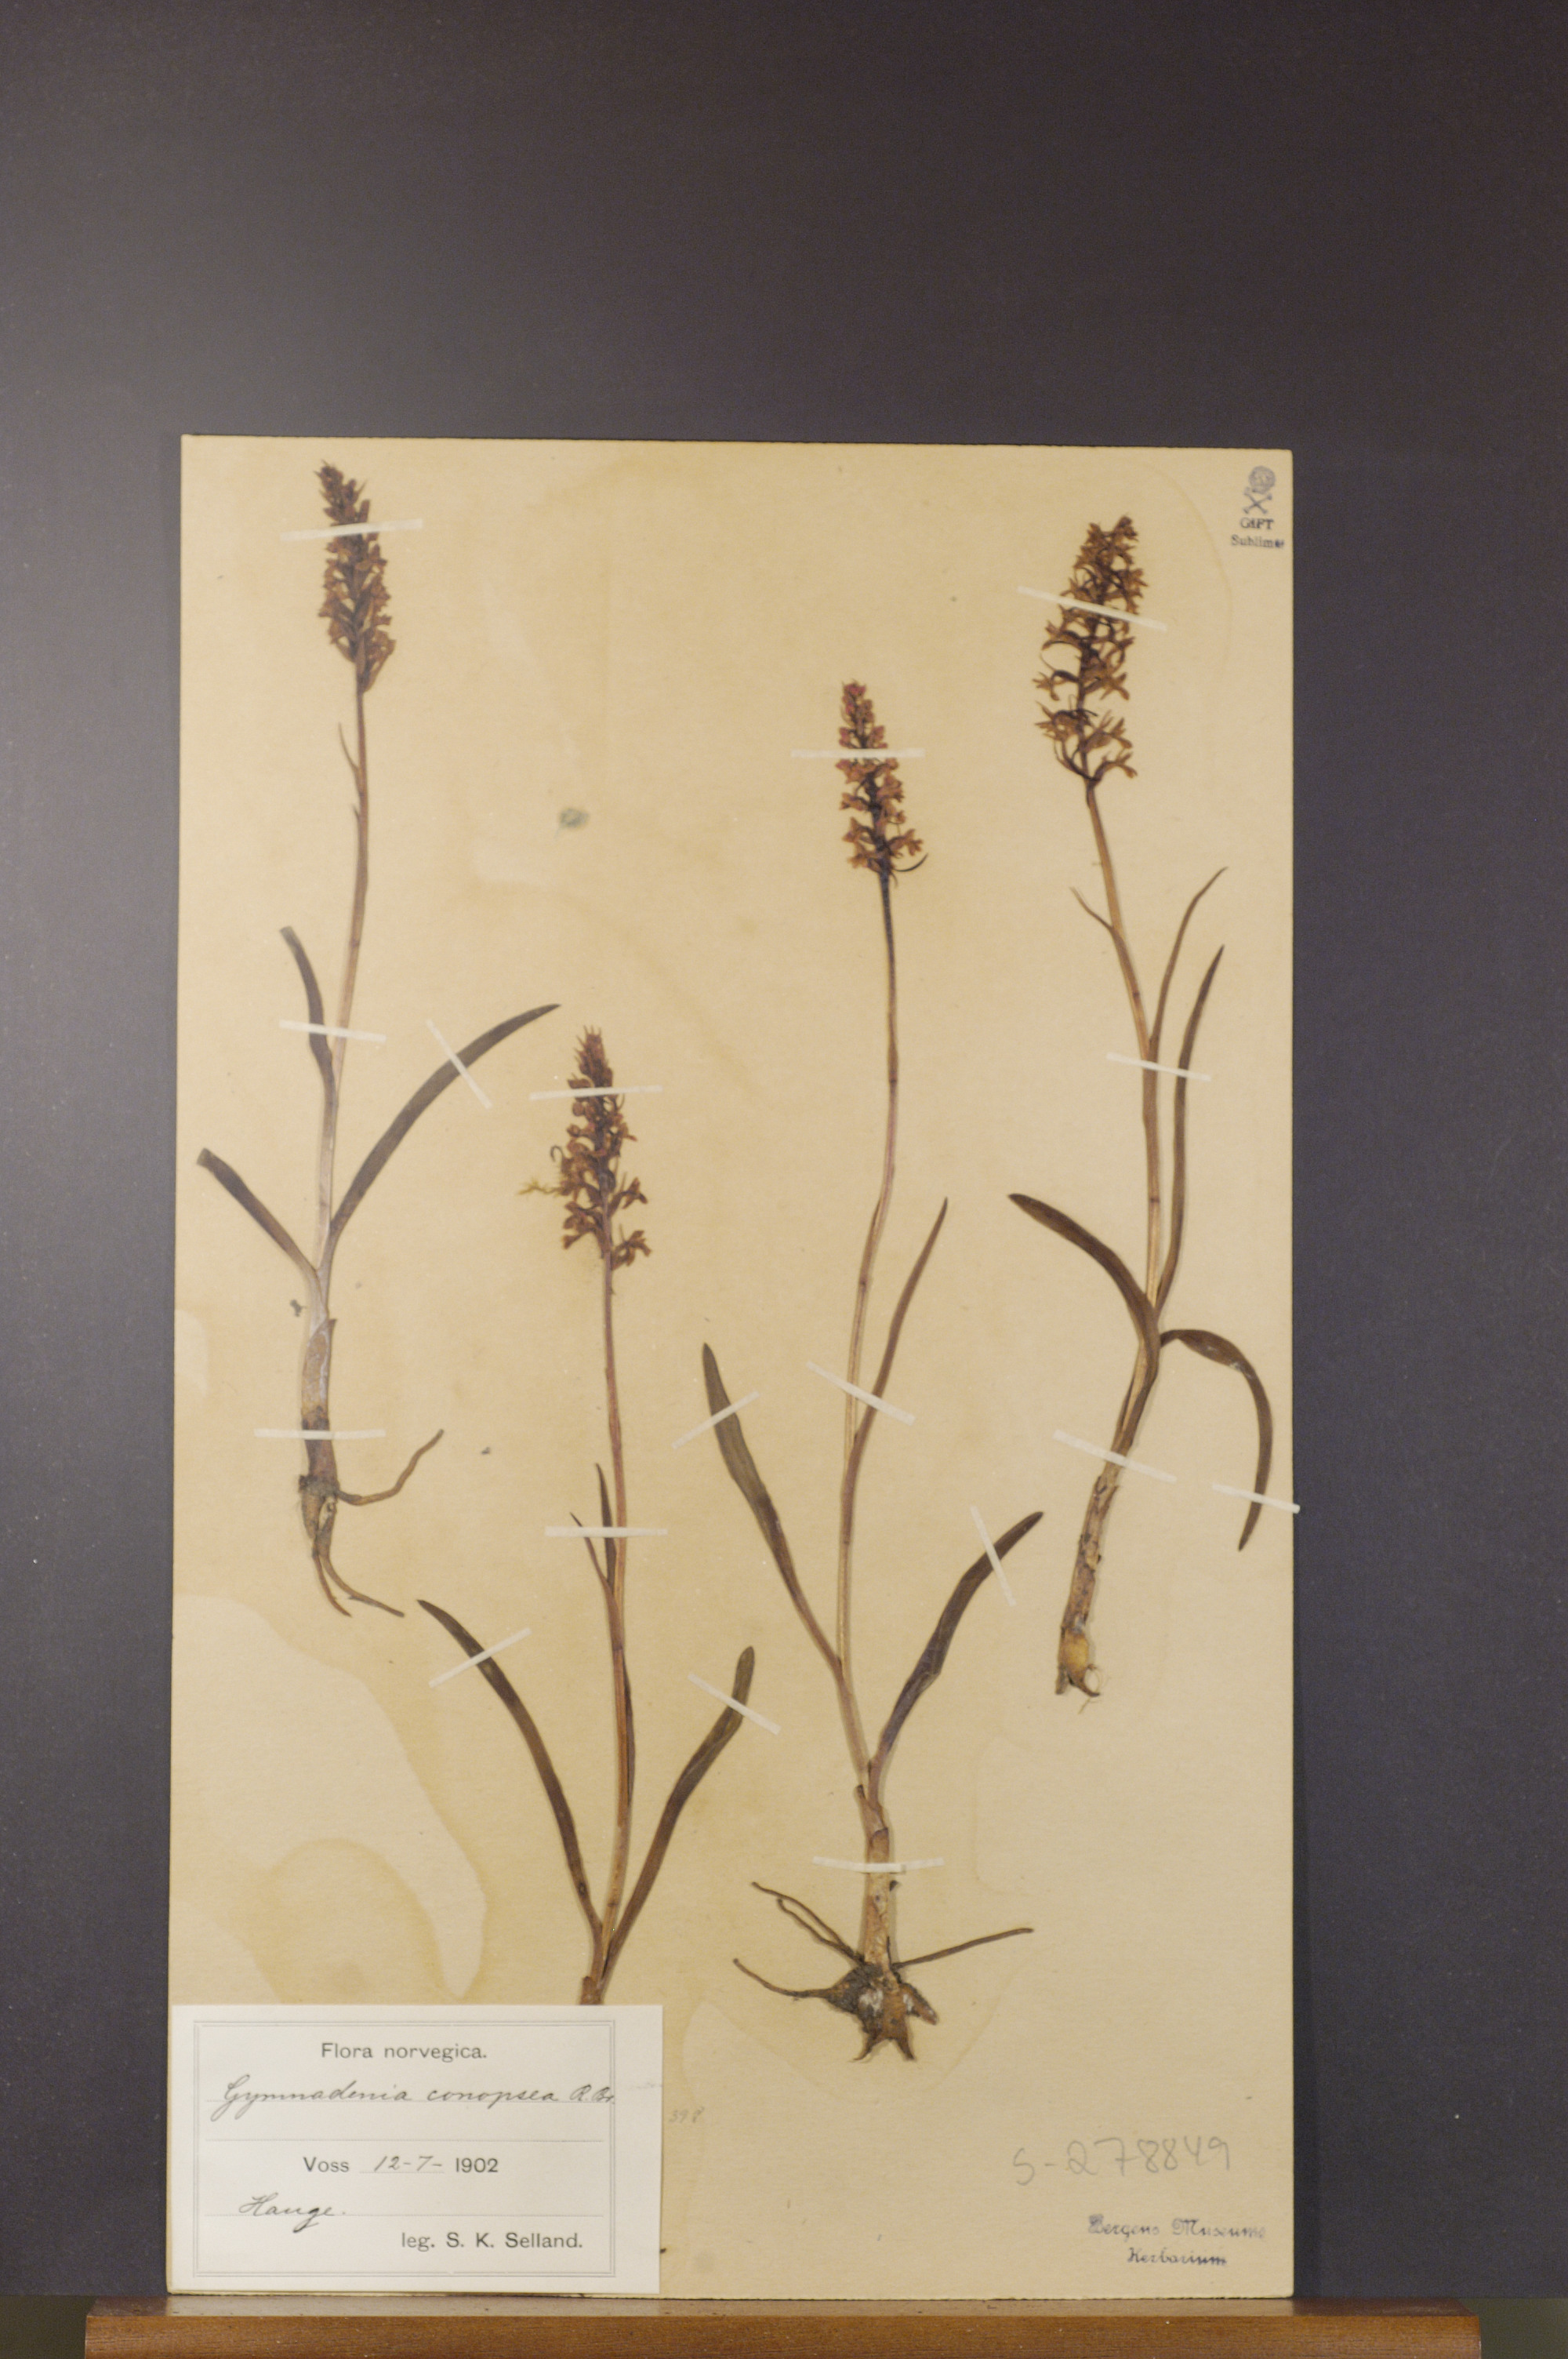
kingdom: Plantae
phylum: Tracheophyta
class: Liliopsida
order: Asparagales
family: Orchidaceae
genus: Gymnadenia
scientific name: Gymnadenia conopsea
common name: Fragrant orchid
